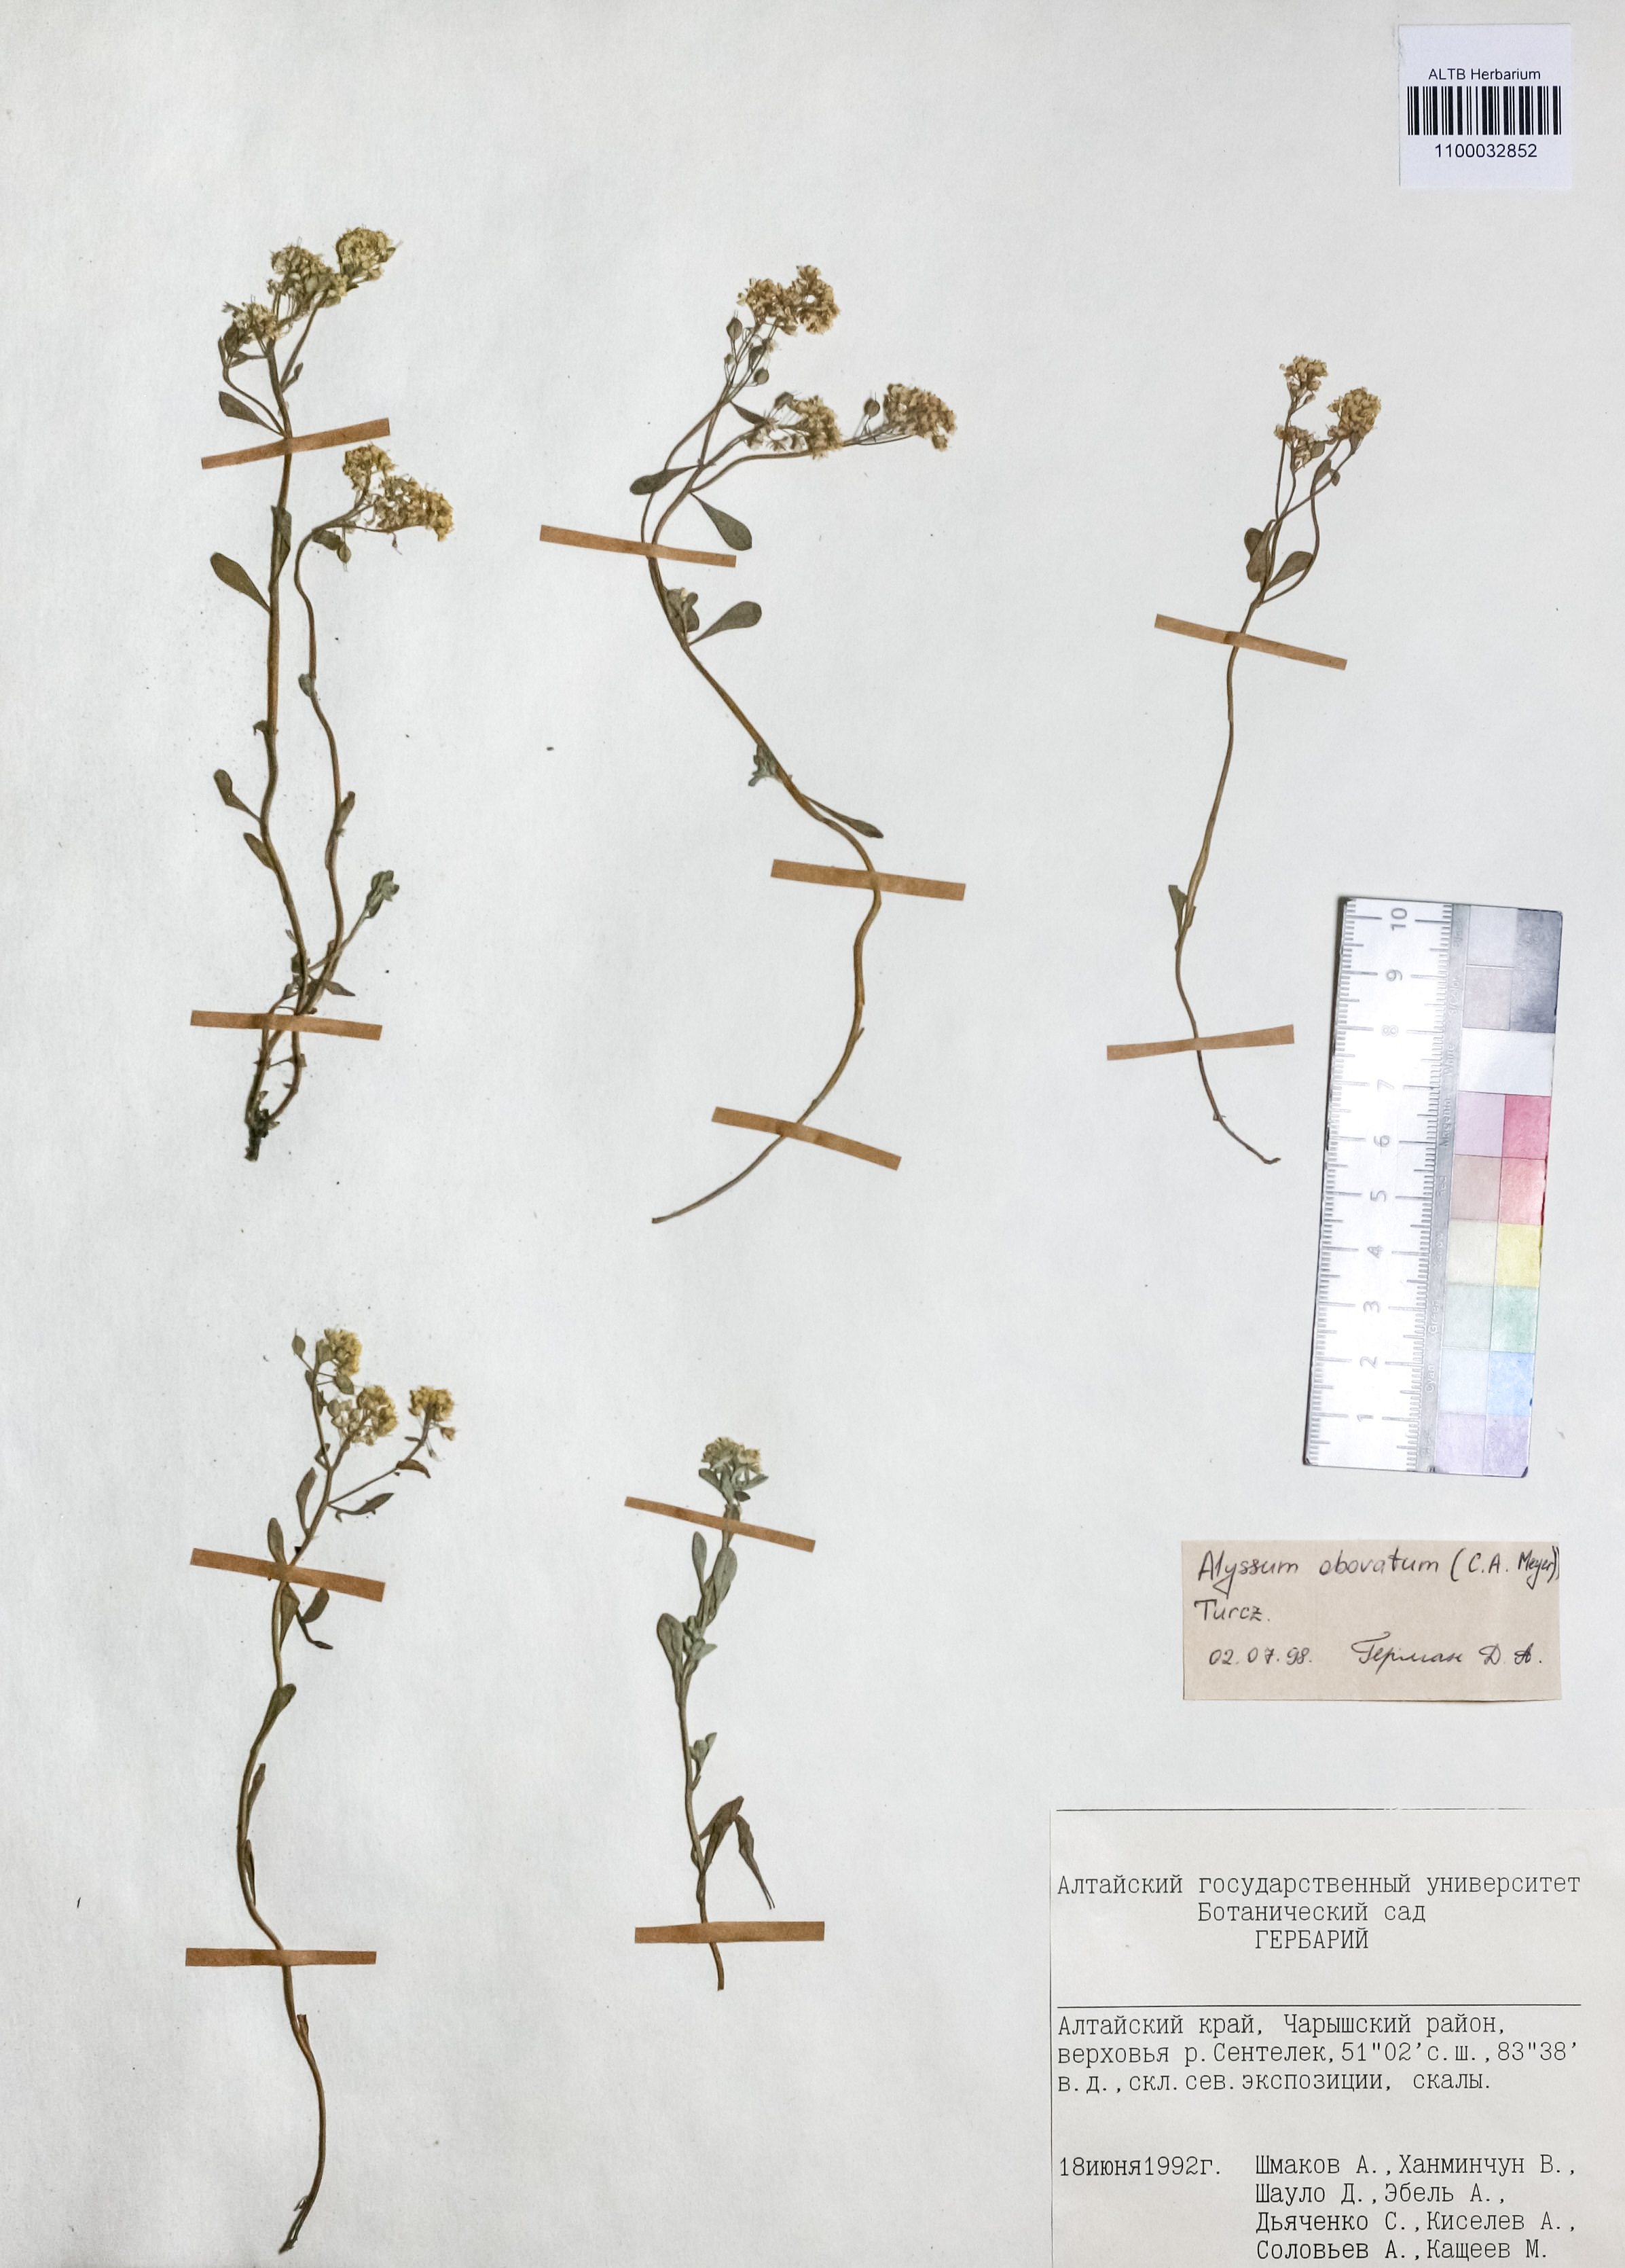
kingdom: Plantae
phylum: Tracheophyta
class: Magnoliopsida
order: Brassicales
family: Brassicaceae
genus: Odontarrhena
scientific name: Odontarrhena obovata
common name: American alyssum
